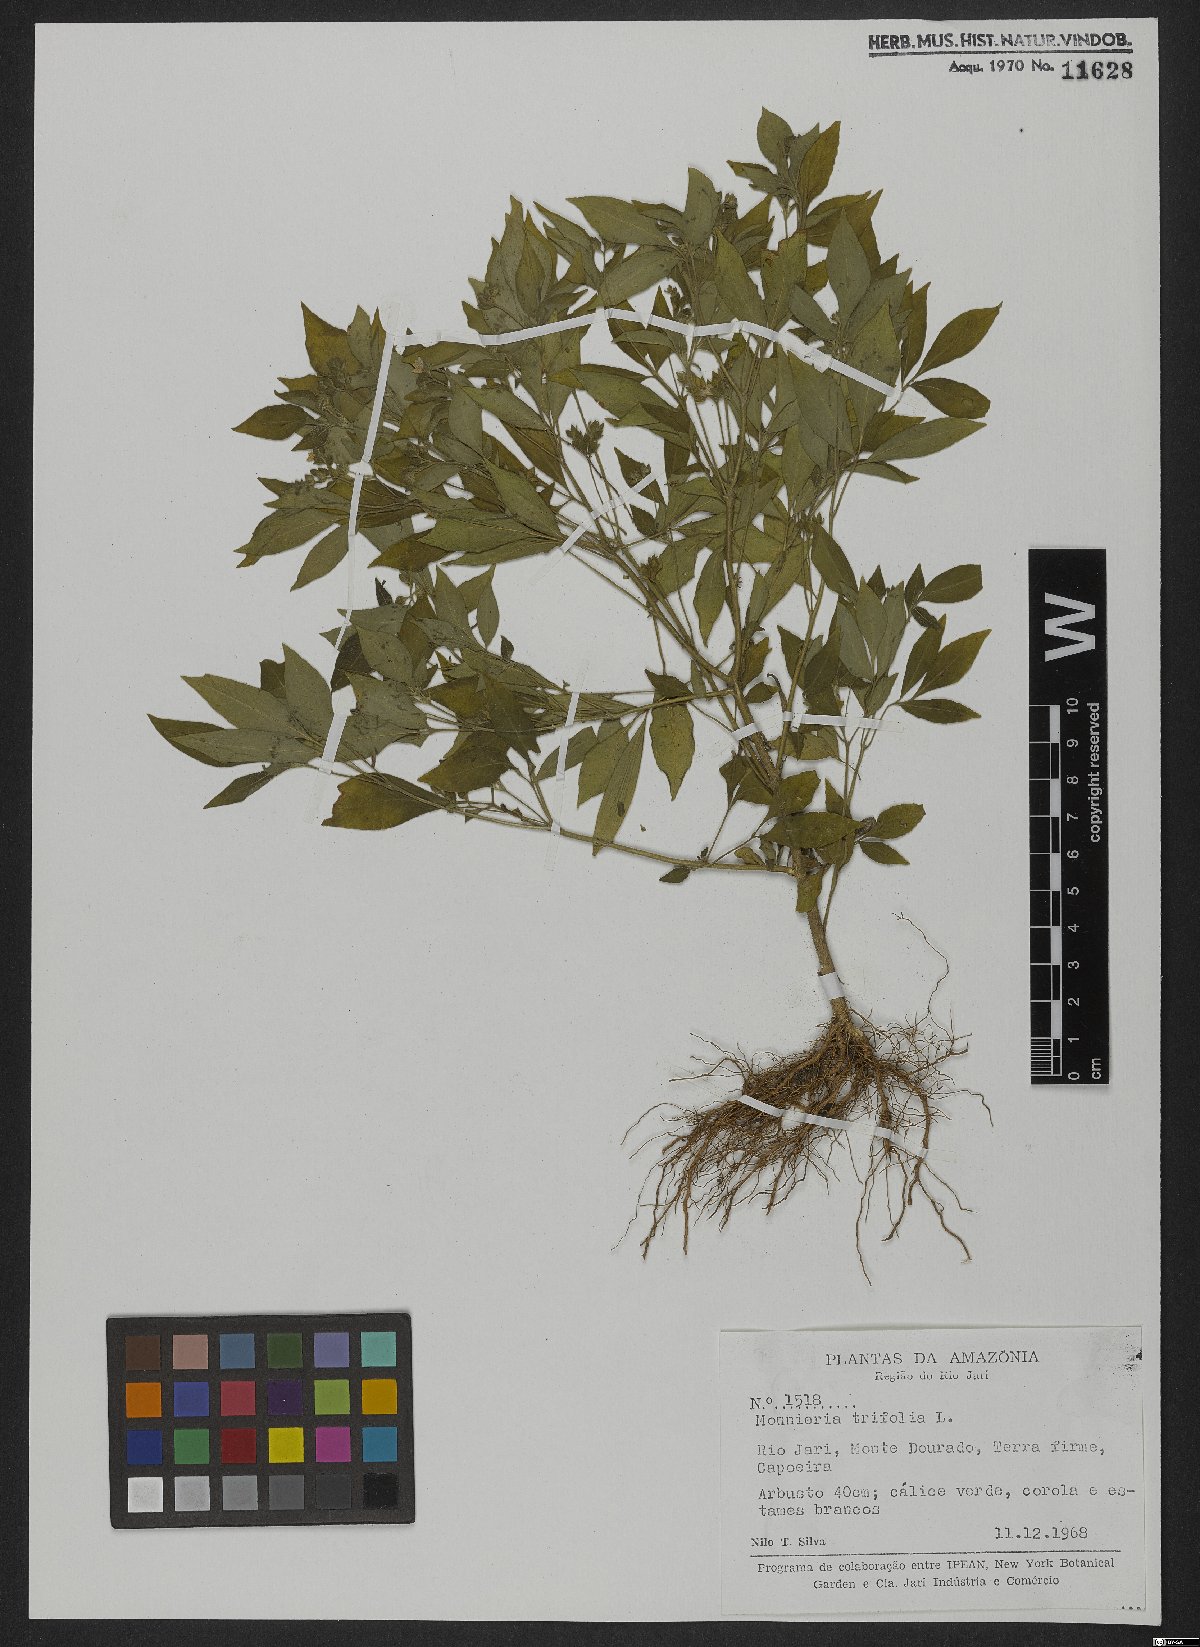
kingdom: Plantae
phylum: Tracheophyta
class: Magnoliopsida
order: Sapindales
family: Rutaceae
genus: Ertela
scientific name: Ertela trifolia
